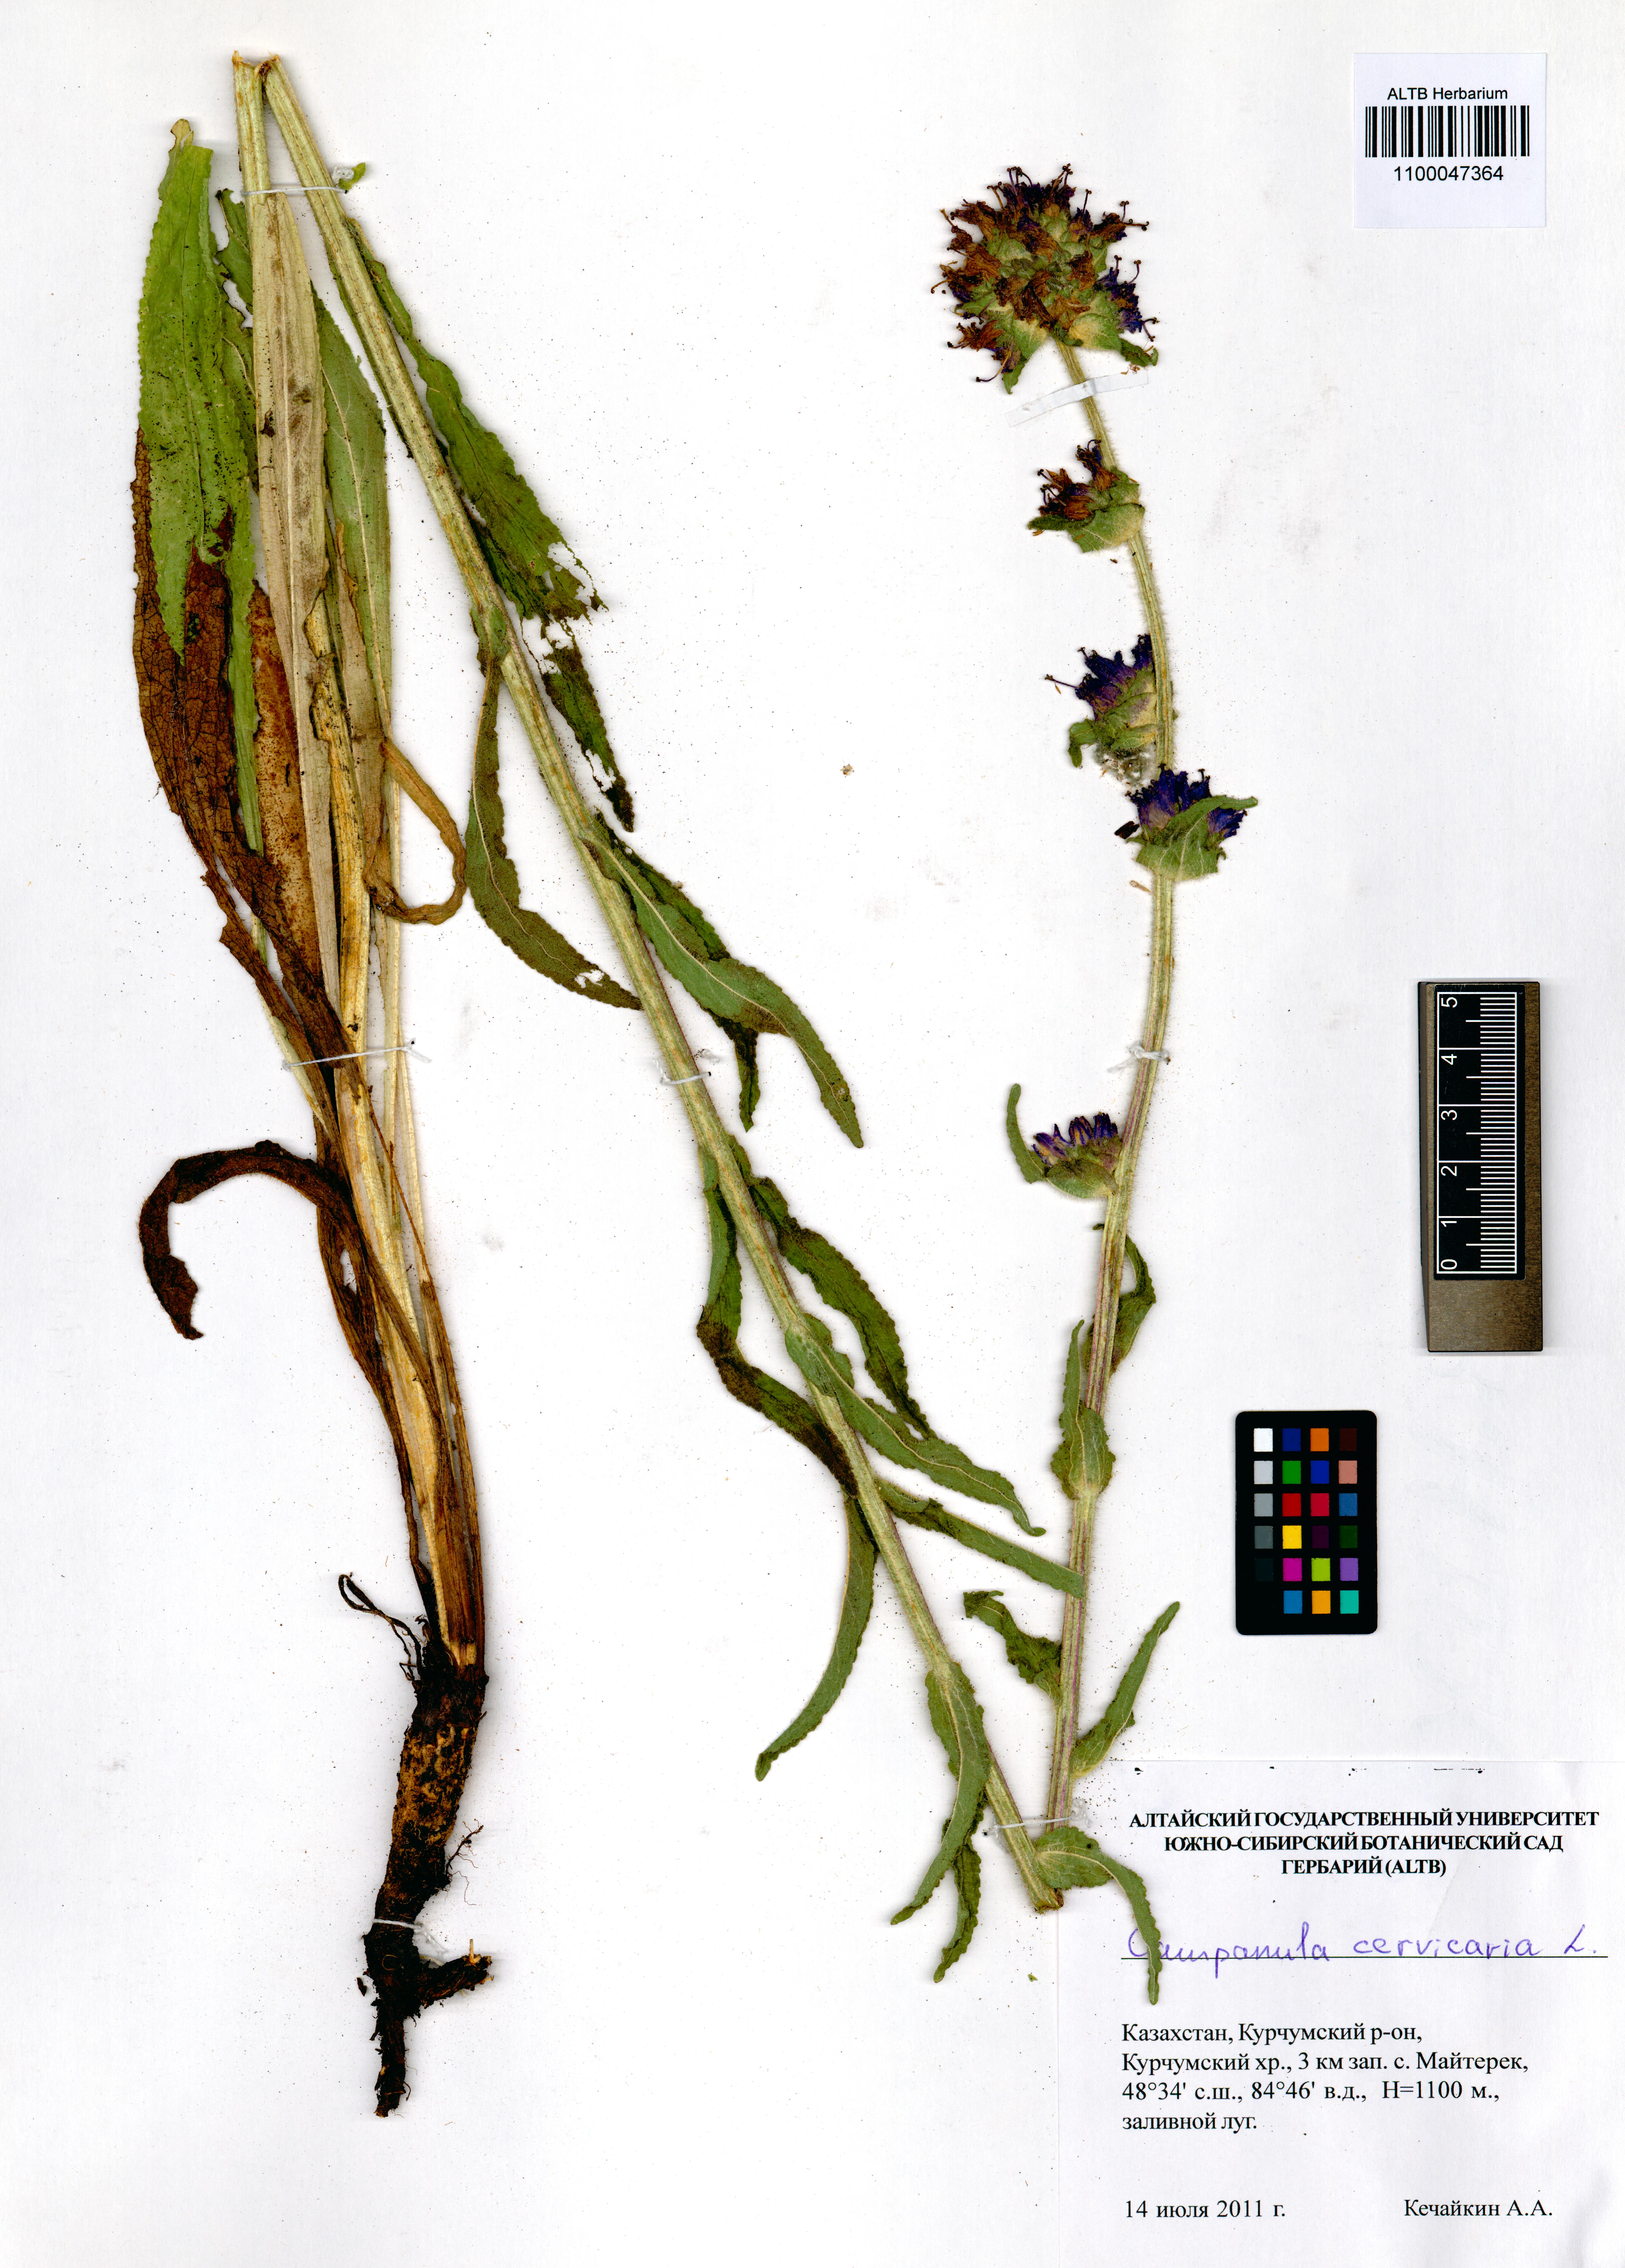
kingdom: Plantae
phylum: Tracheophyta
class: Magnoliopsida
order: Asterales
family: Campanulaceae
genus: Campanula
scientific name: Campanula cervicaria
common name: Bristly bellflower
